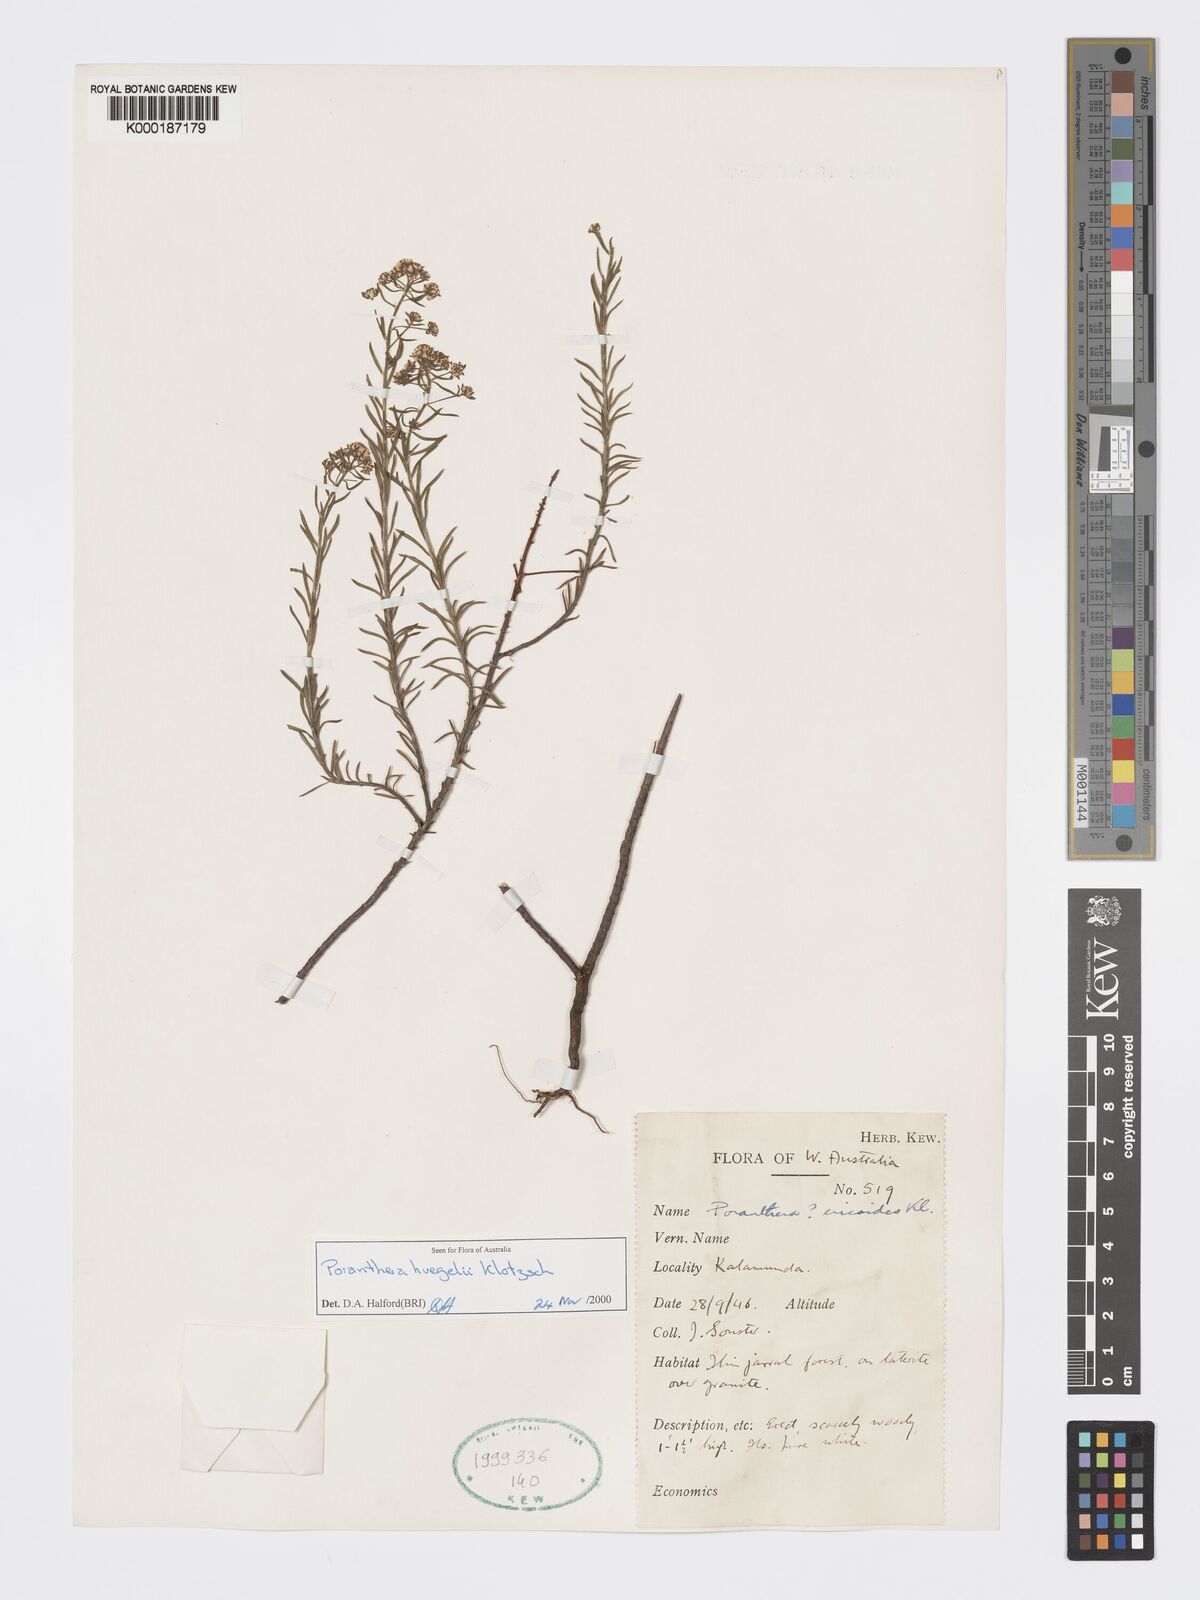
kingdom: Plantae
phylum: Tracheophyta
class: Magnoliopsida
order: Malpighiales
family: Phyllanthaceae
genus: Poranthera
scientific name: Poranthera huegelii
